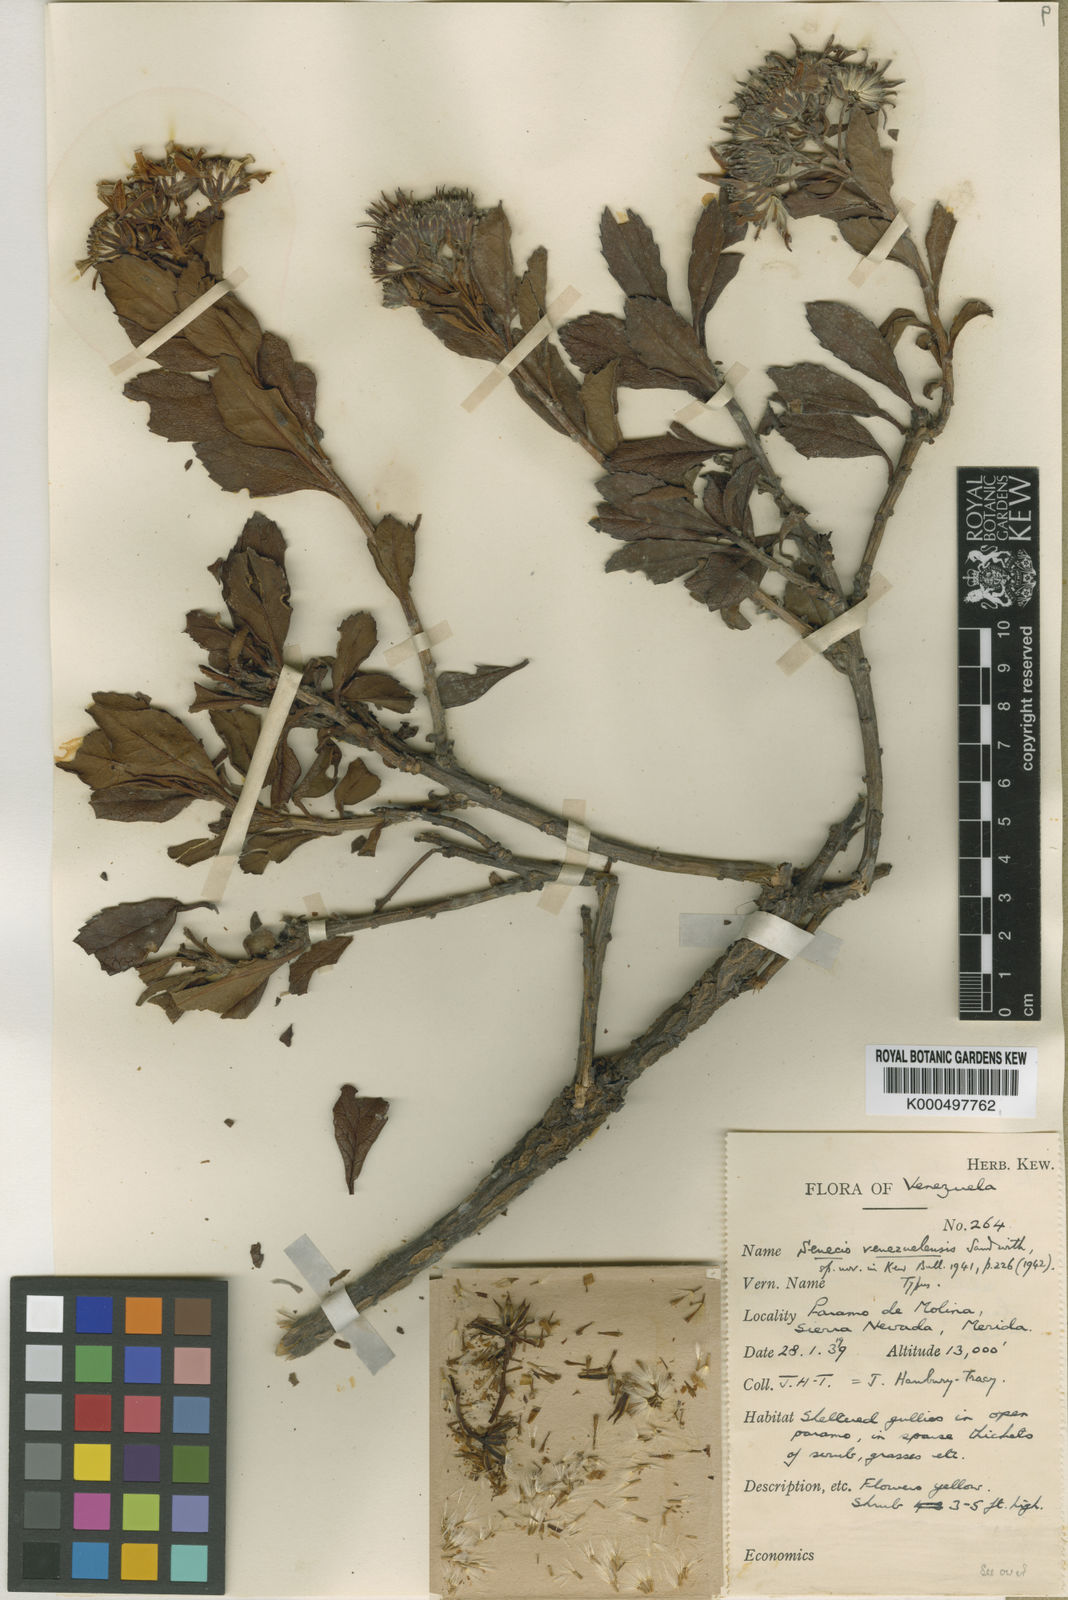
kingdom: Plantae
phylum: Tracheophyta
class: Magnoliopsida
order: Asterales
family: Asteraceae
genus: Monticalia
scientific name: Monticalia venezuelensis
